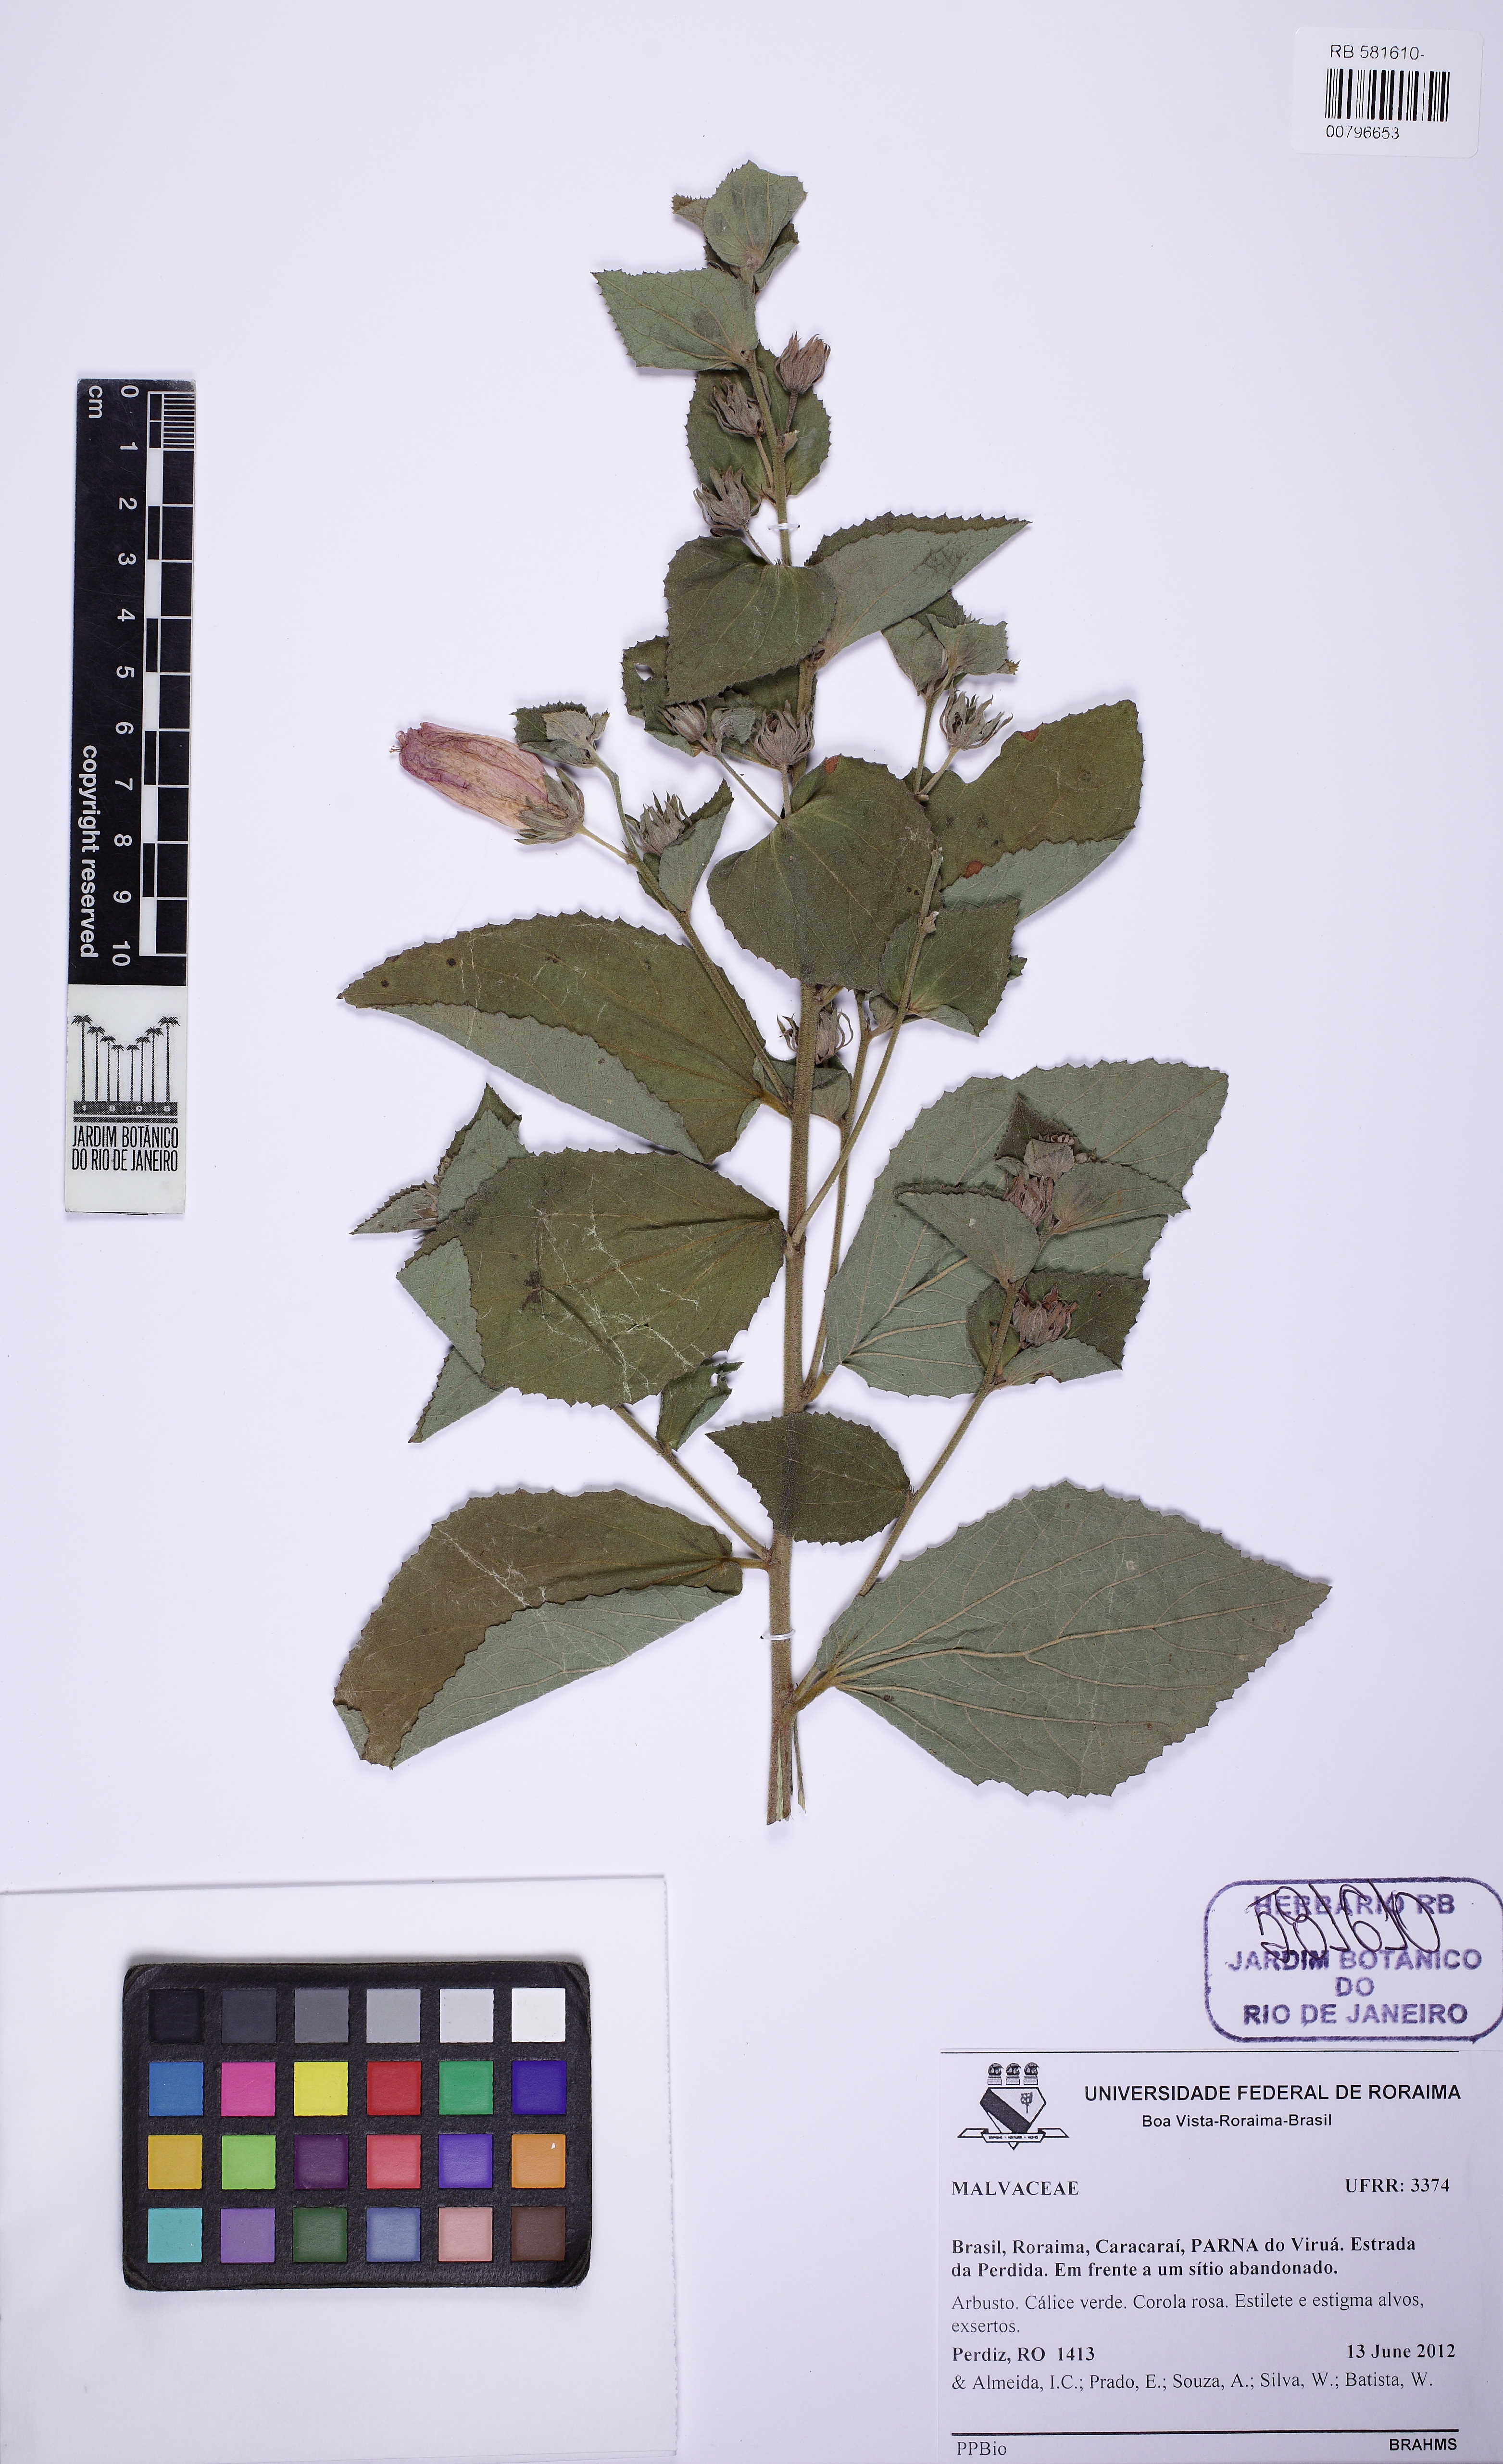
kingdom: Plantae
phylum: Tracheophyta
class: Magnoliopsida
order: Malvales
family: Malvaceae
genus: Peltaea
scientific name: Peltaea surumuensis
